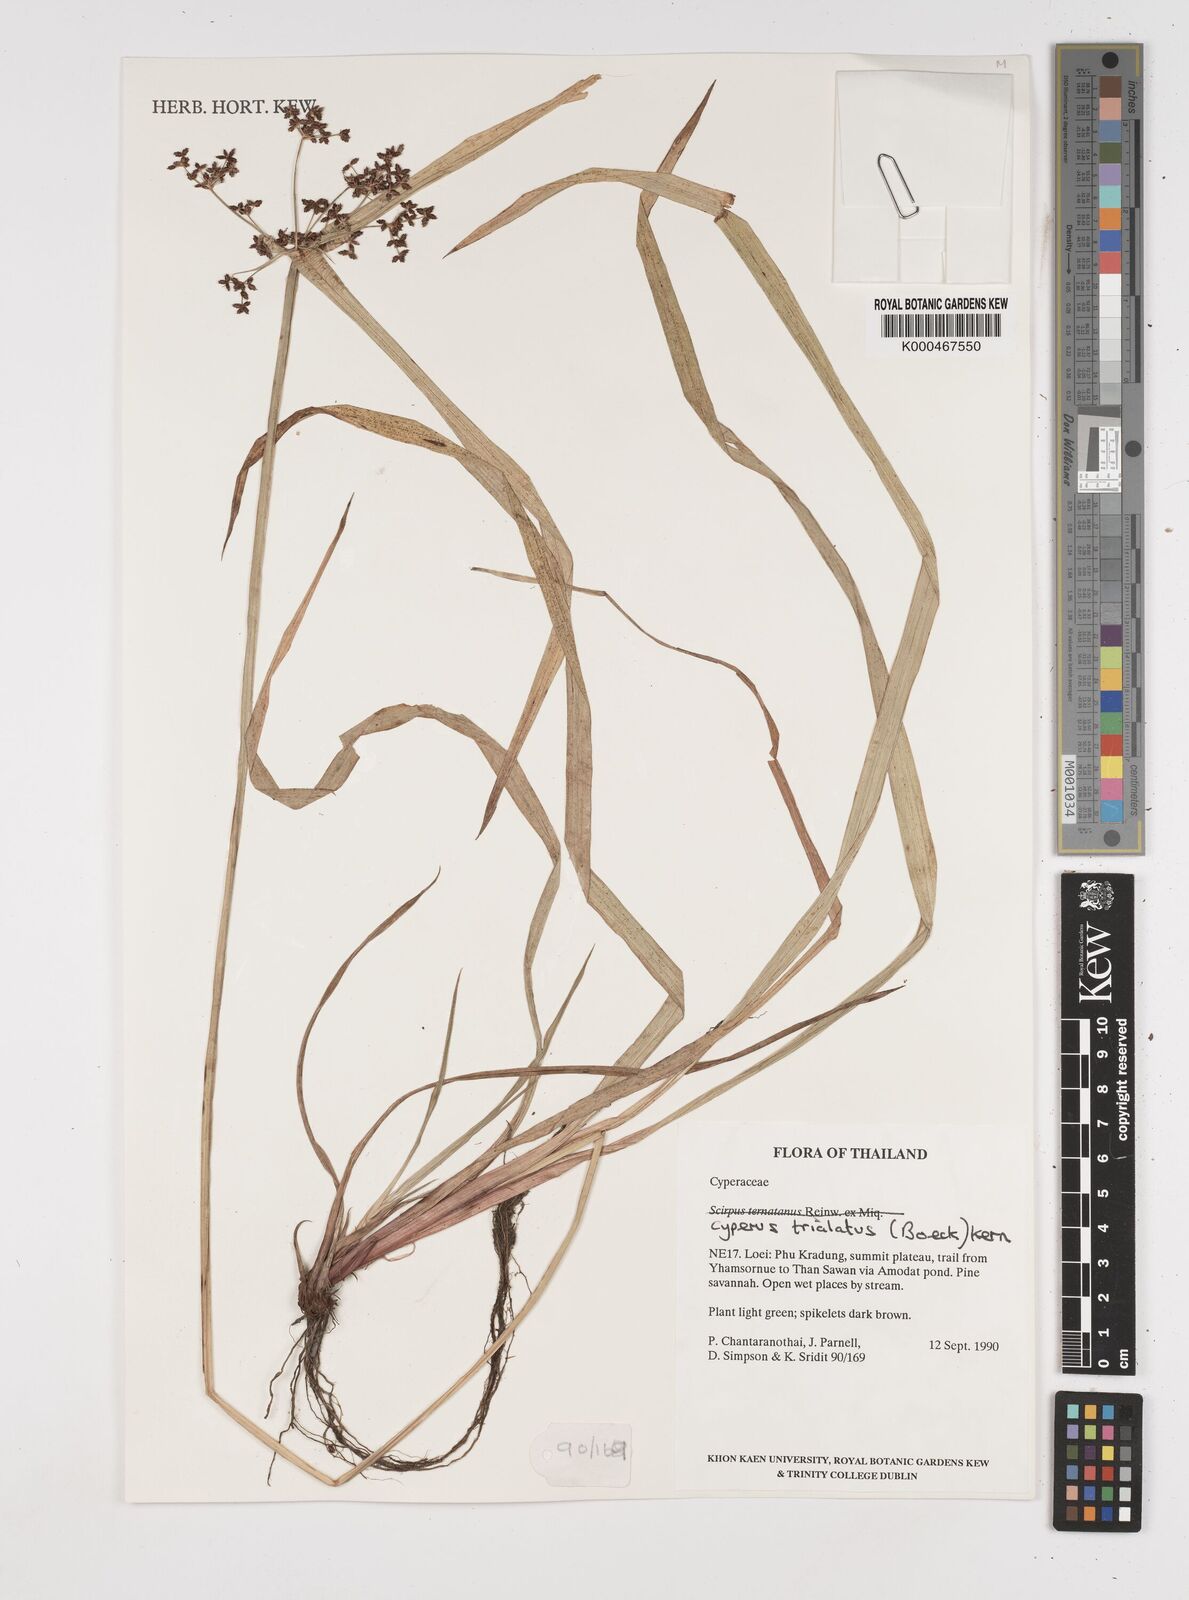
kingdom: Plantae
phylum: Tracheophyta
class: Liliopsida
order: Poales
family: Cyperaceae
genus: Cyperus
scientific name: Cyperus trialatus
